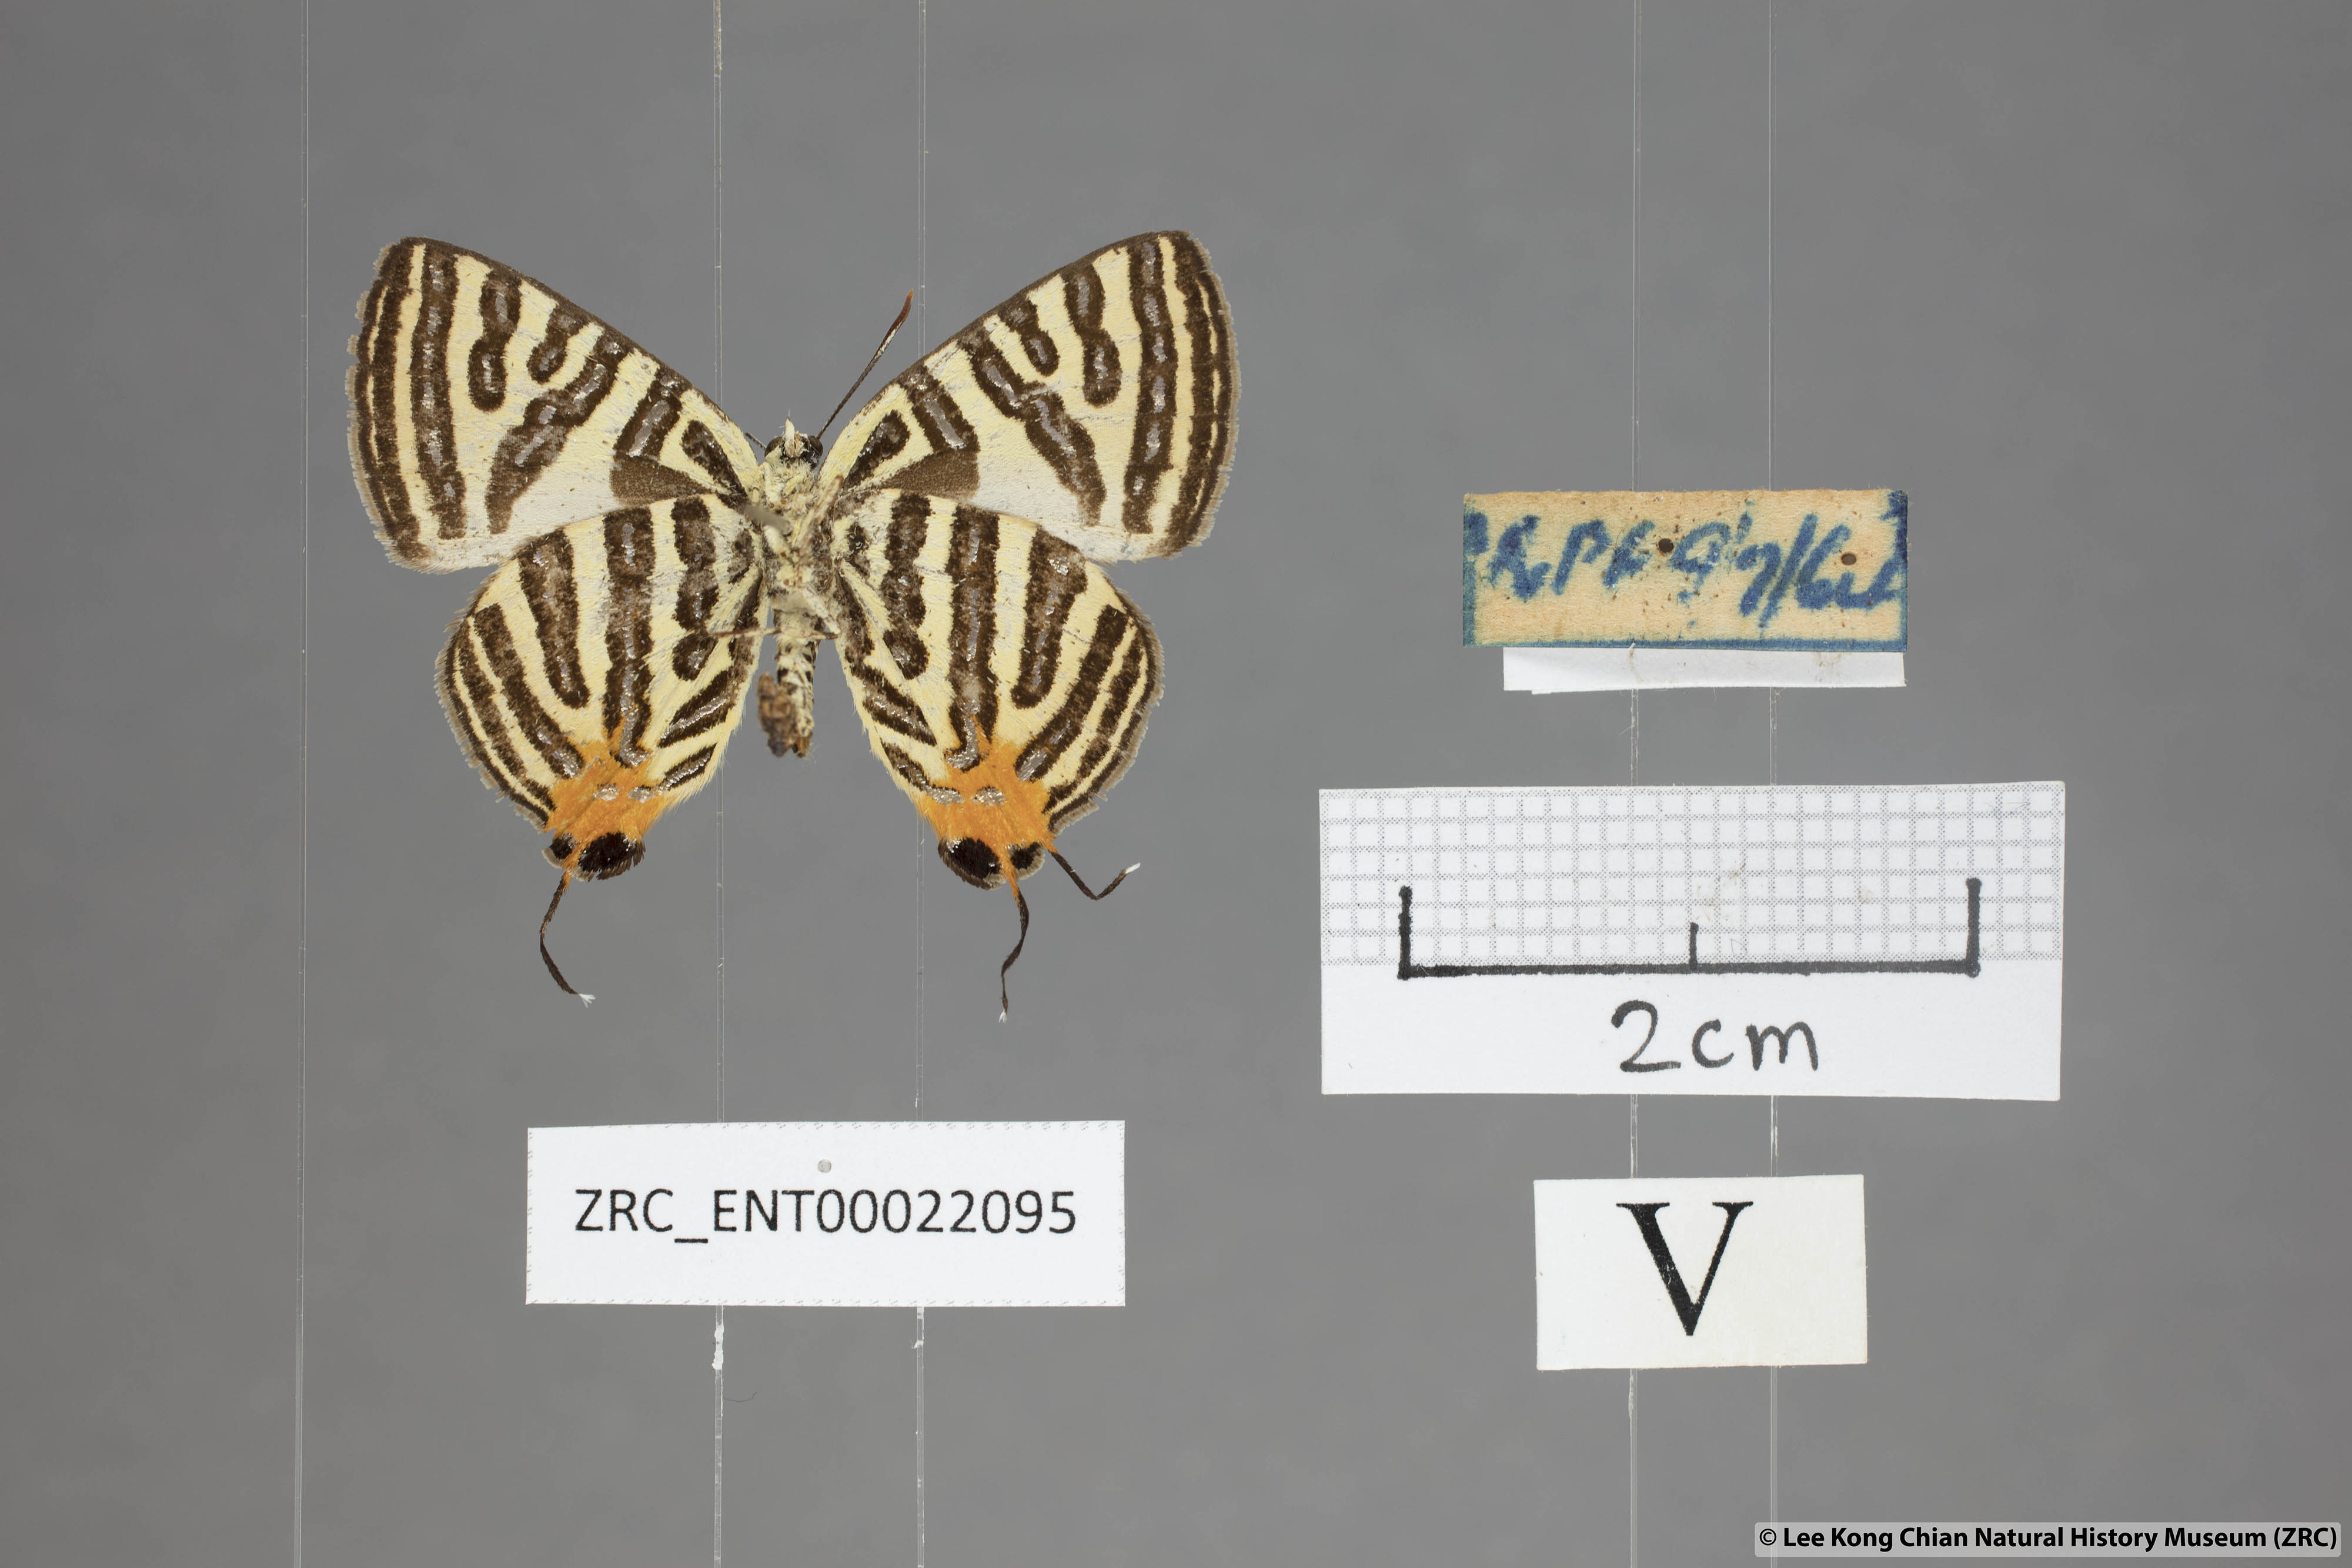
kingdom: Animalia
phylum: Arthropoda
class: Insecta
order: Lepidoptera
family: Lycaenidae
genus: Spindasis
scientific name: Spindasis syama
